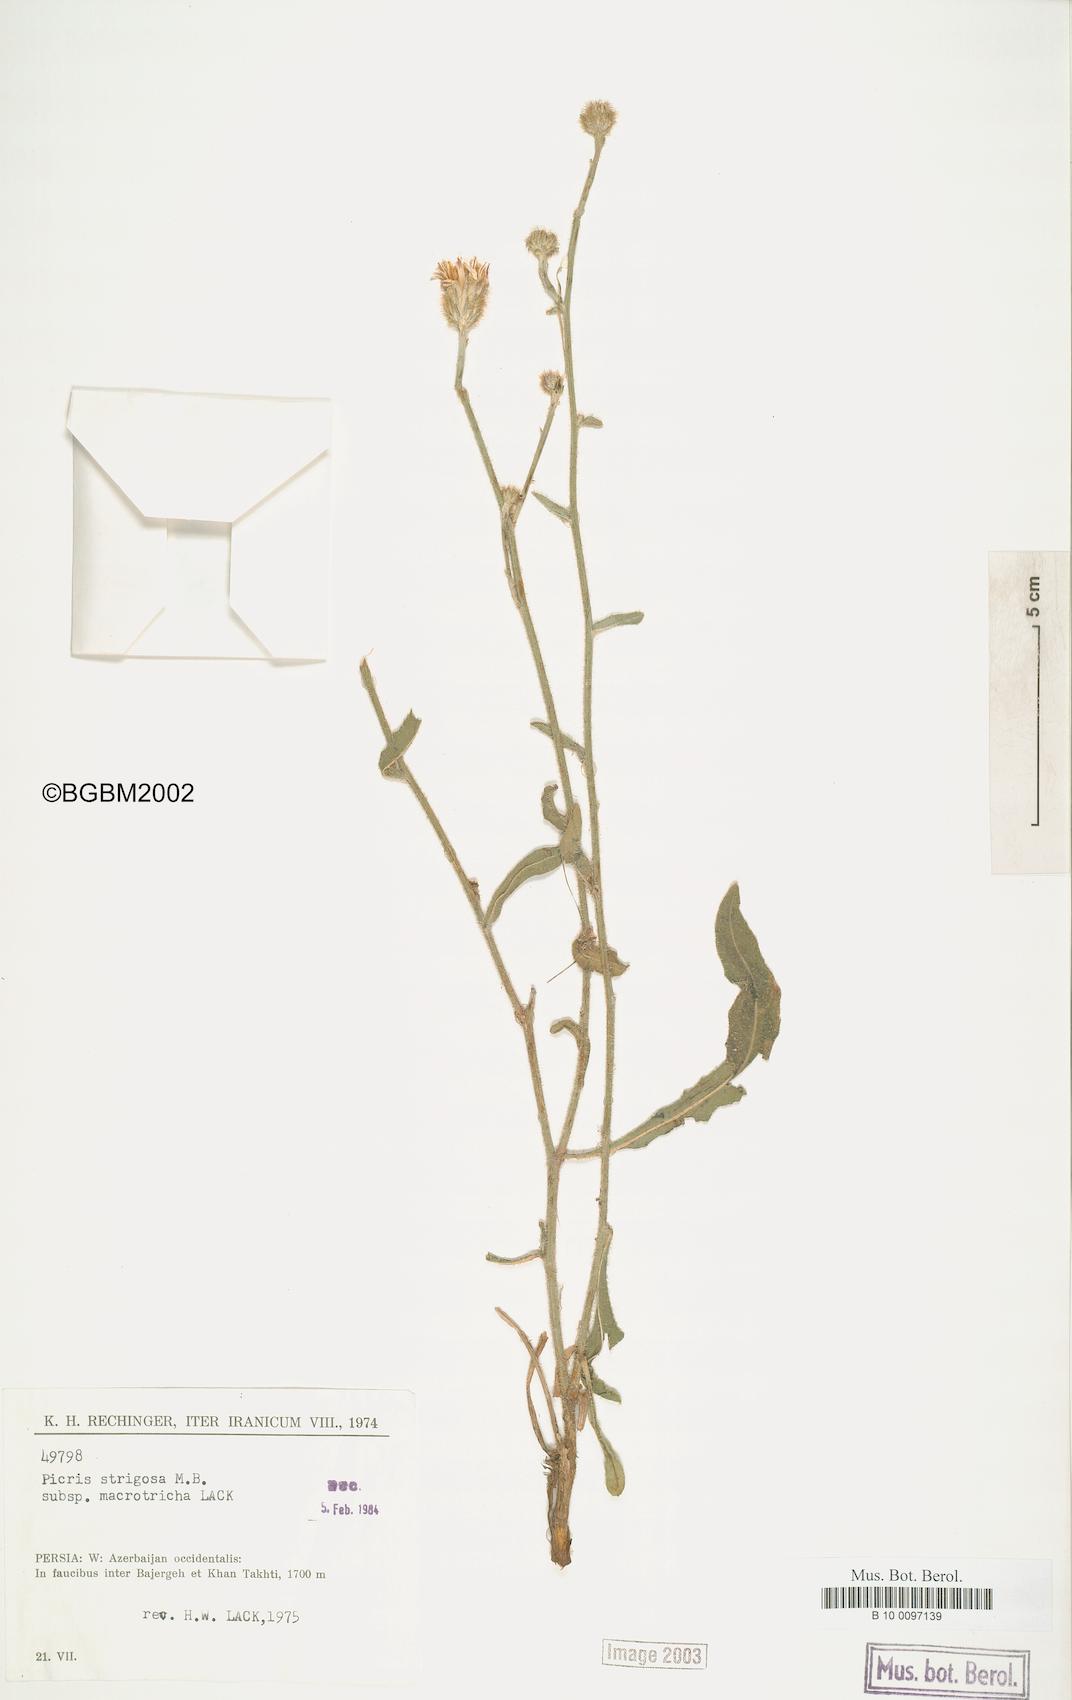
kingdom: Plantae
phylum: Tracheophyta
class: Magnoliopsida
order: Asterales
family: Asteraceae
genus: Picris
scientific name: Picris strigosa
